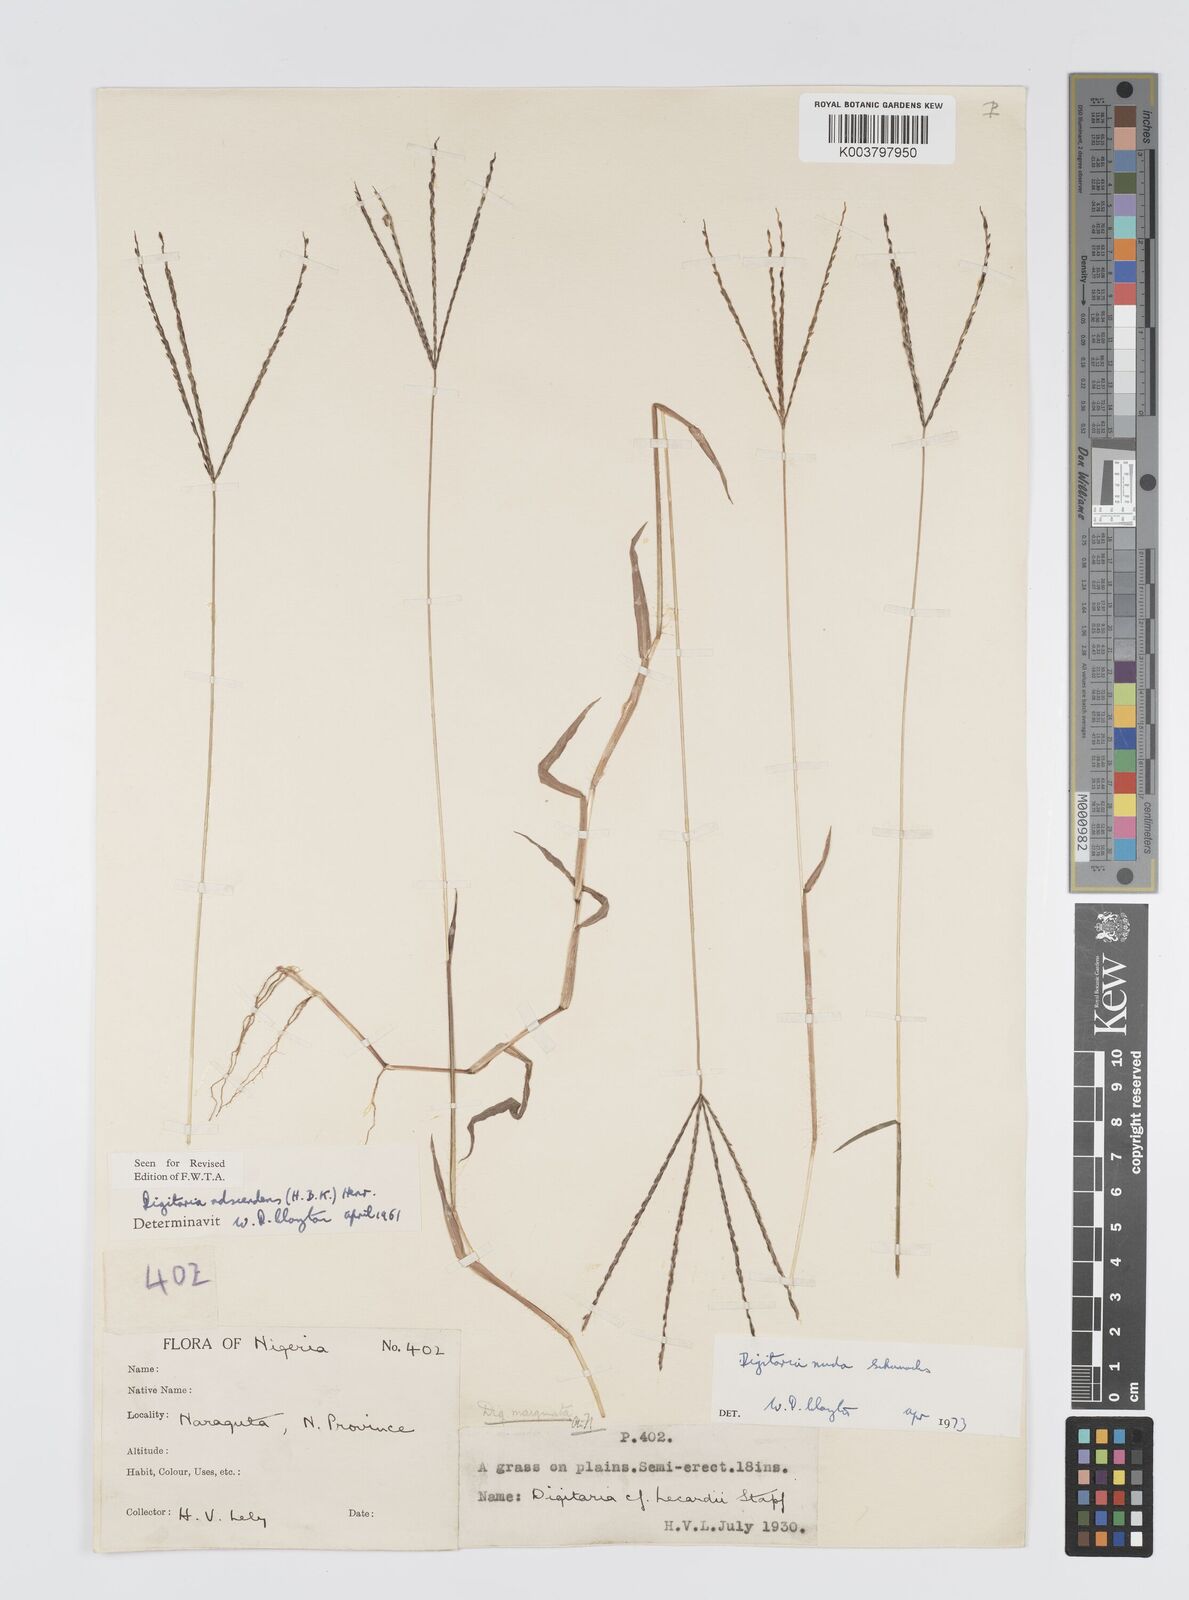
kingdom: Plantae
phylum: Tracheophyta
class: Liliopsida
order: Poales
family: Poaceae
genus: Digitaria
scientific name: Digitaria nuda
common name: Naked crabgrass
